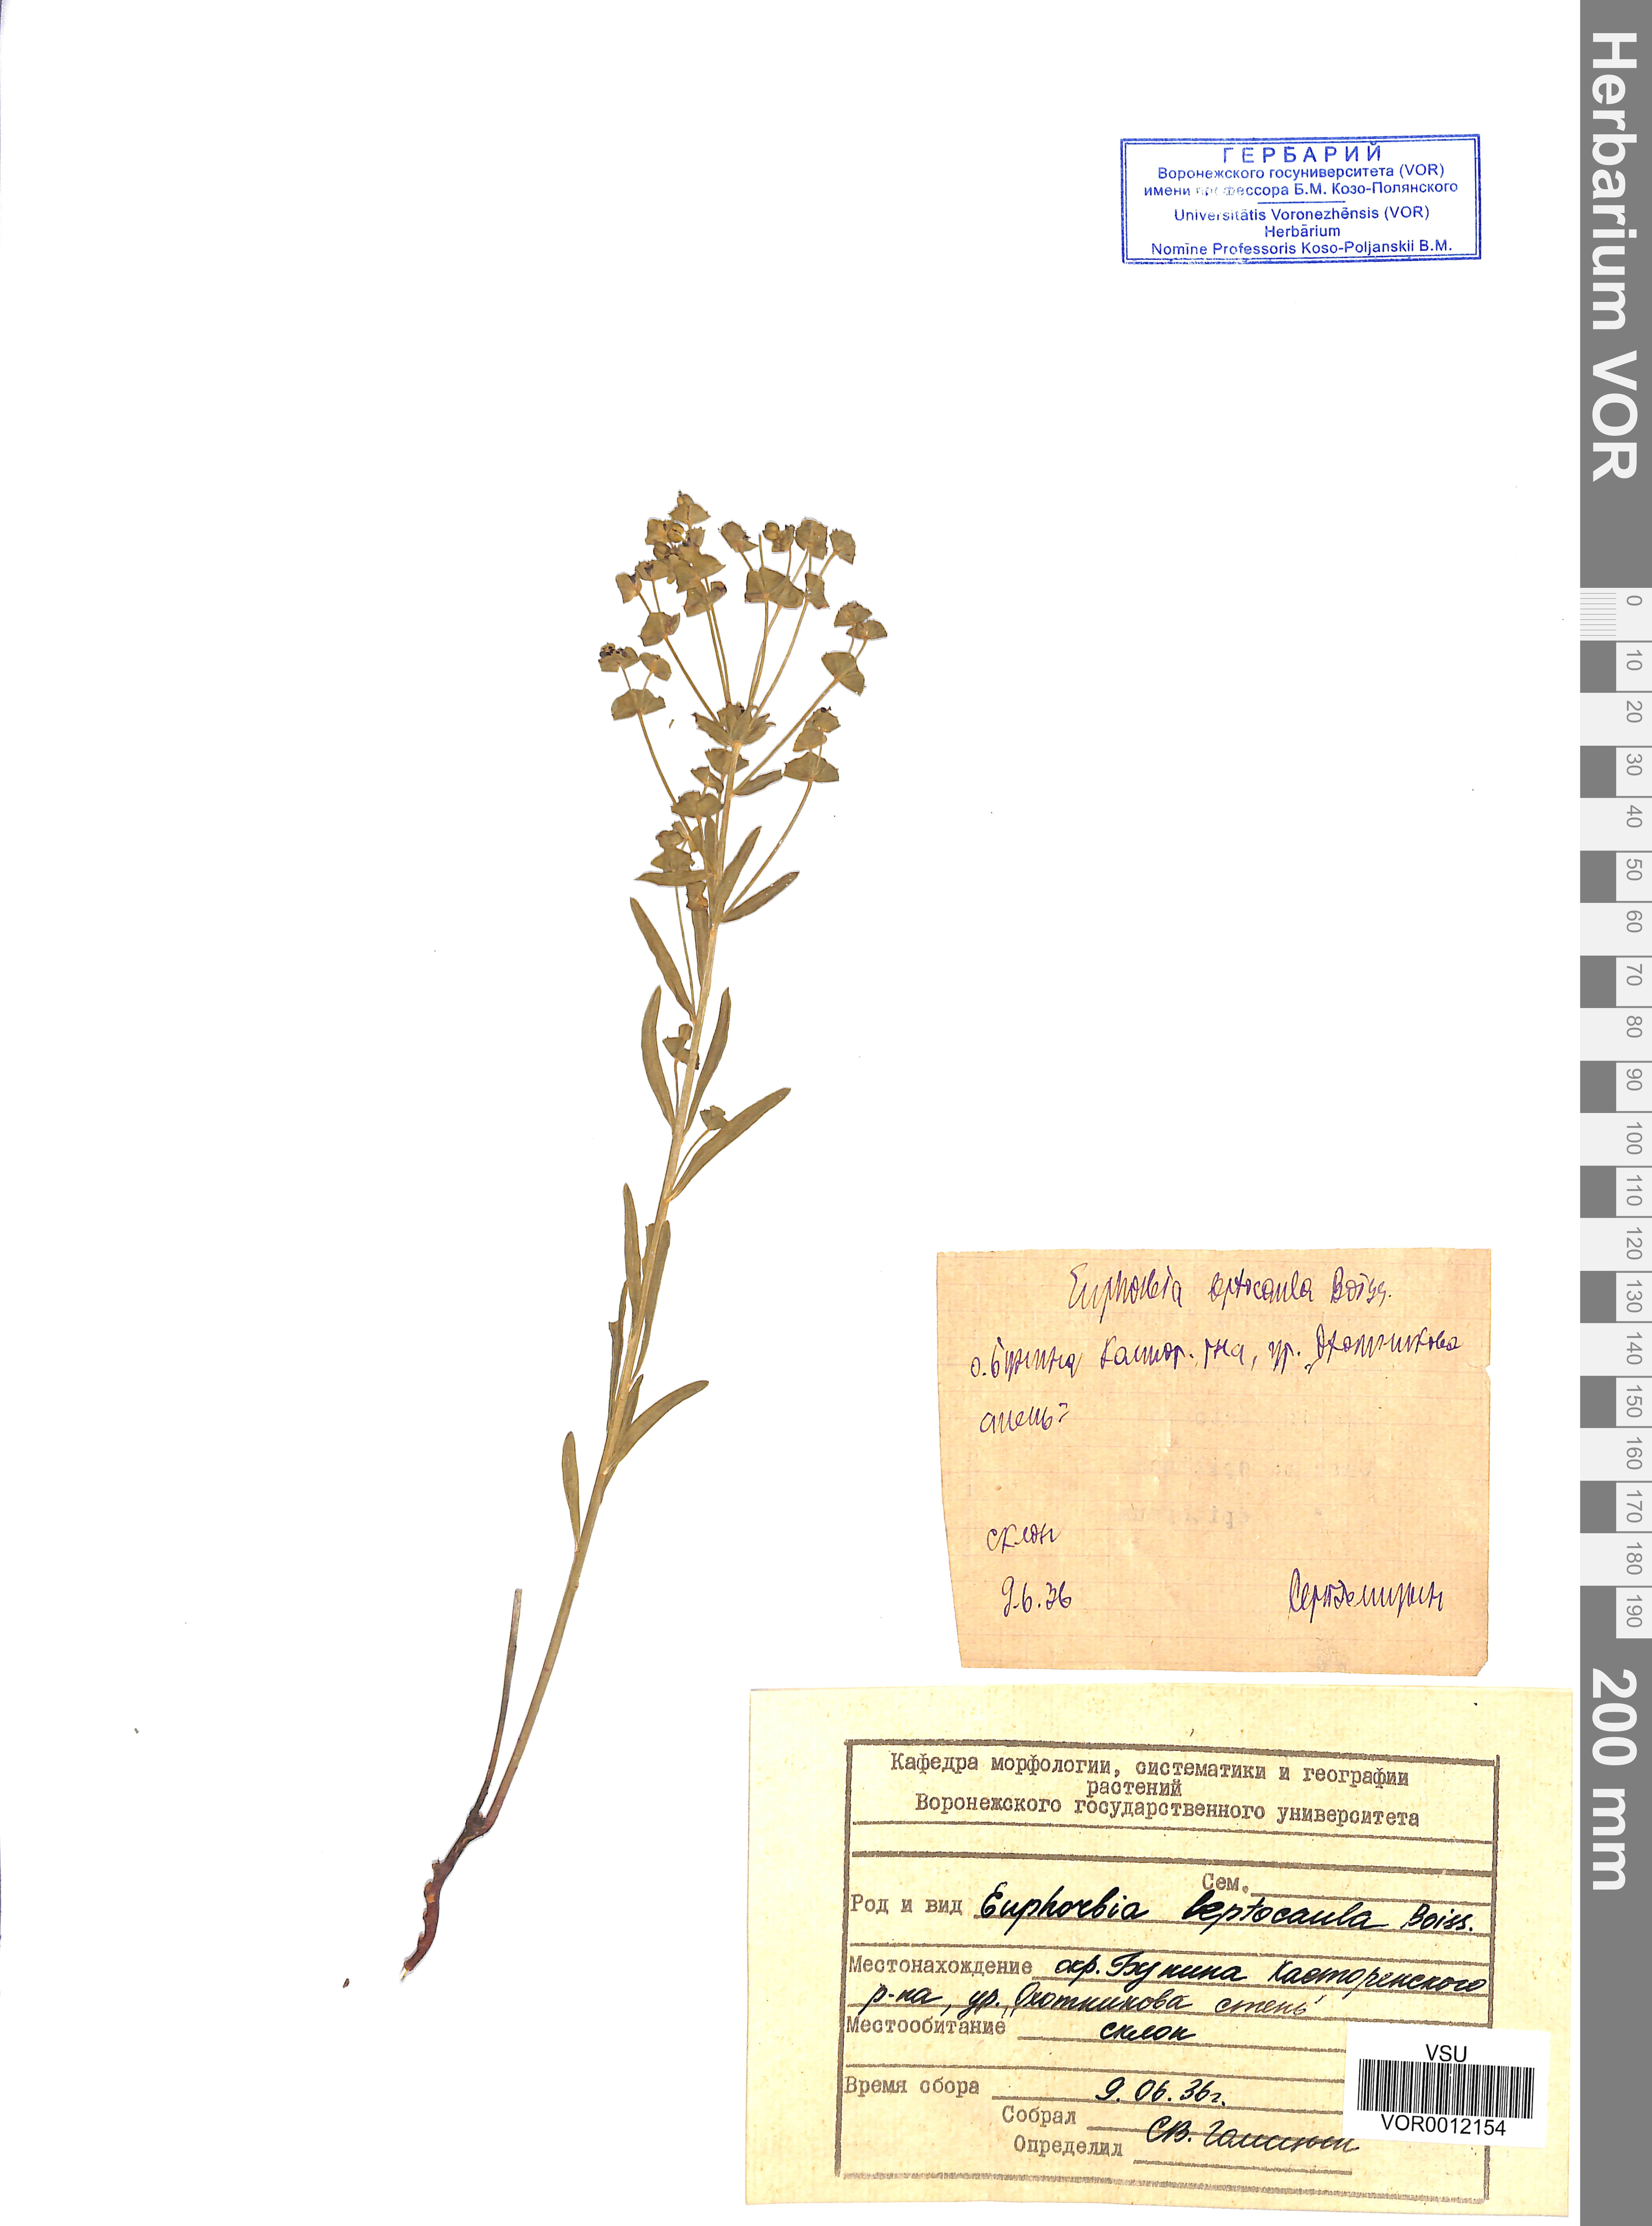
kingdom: Plantae
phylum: Tracheophyta
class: Magnoliopsida
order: Malpighiales
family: Euphorbiaceae
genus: Euphorbia
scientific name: Euphorbia leptocaula
